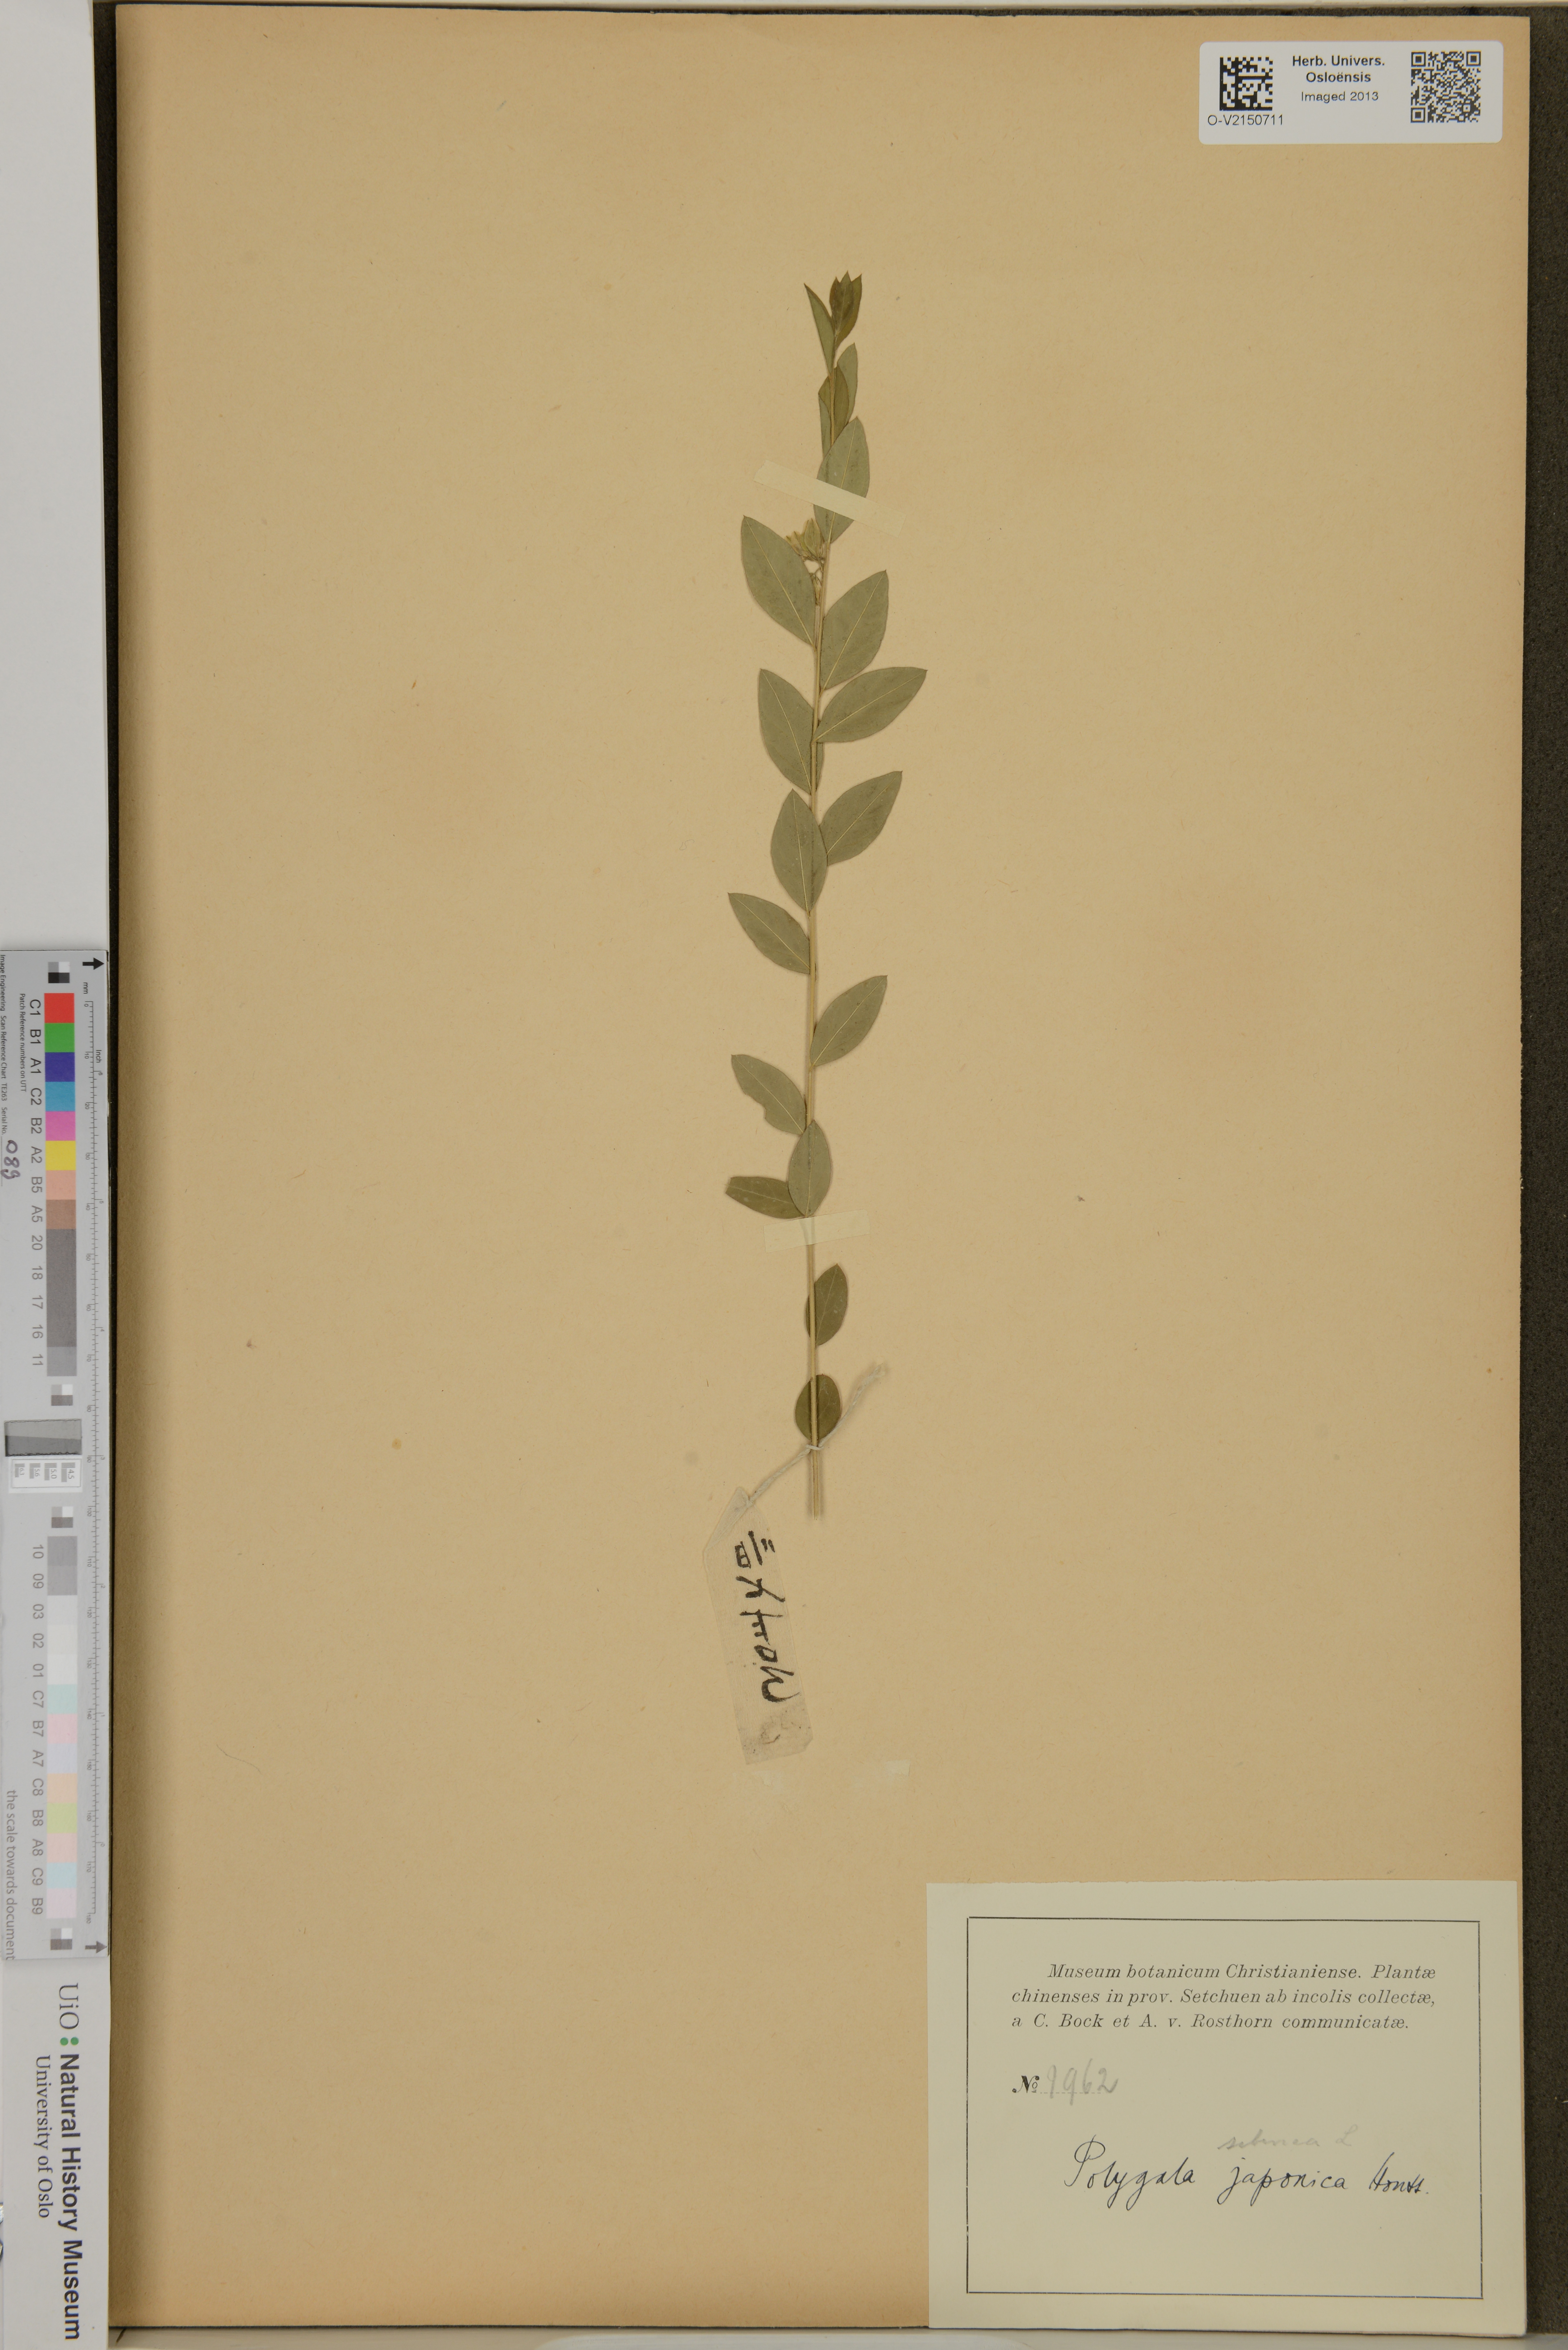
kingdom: Plantae
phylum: Tracheophyta
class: Magnoliopsida
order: Fabales
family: Polygalaceae
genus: Polygala
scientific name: Polygala japonica
